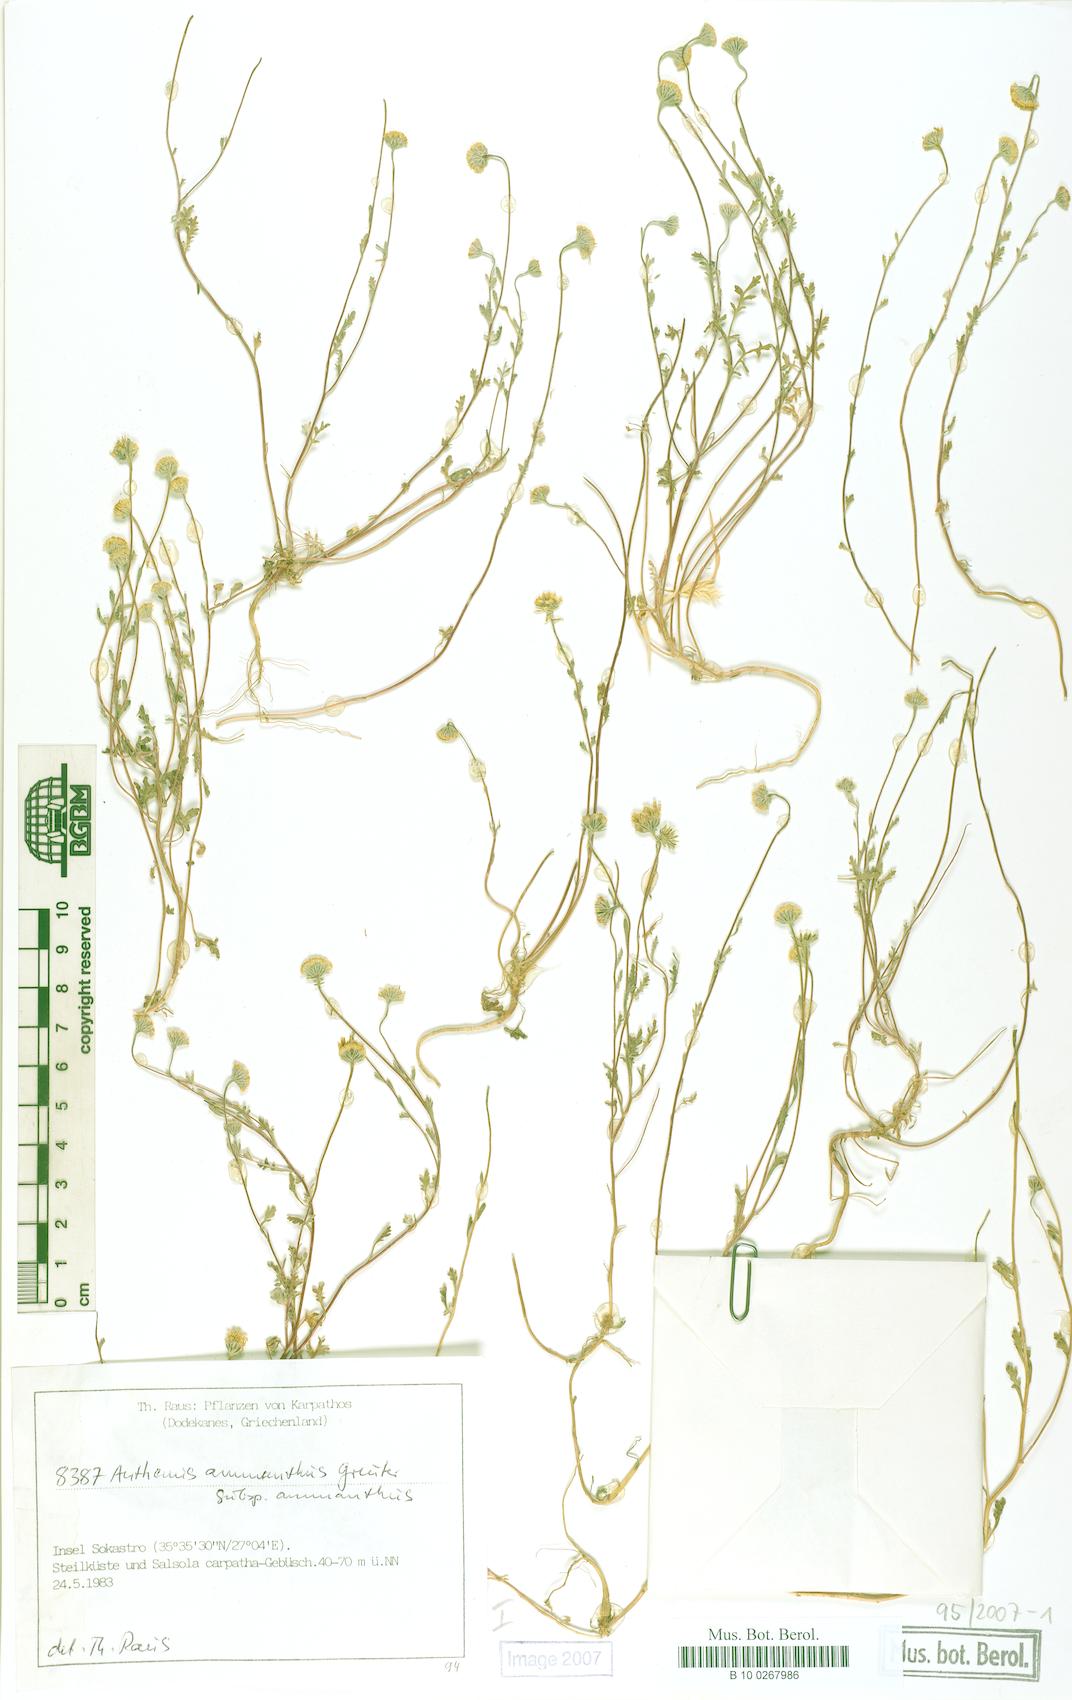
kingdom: Plantae
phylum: Tracheophyta
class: Magnoliopsida
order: Asterales
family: Asteraceae
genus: Anthemis
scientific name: Anthemis ammanthus
